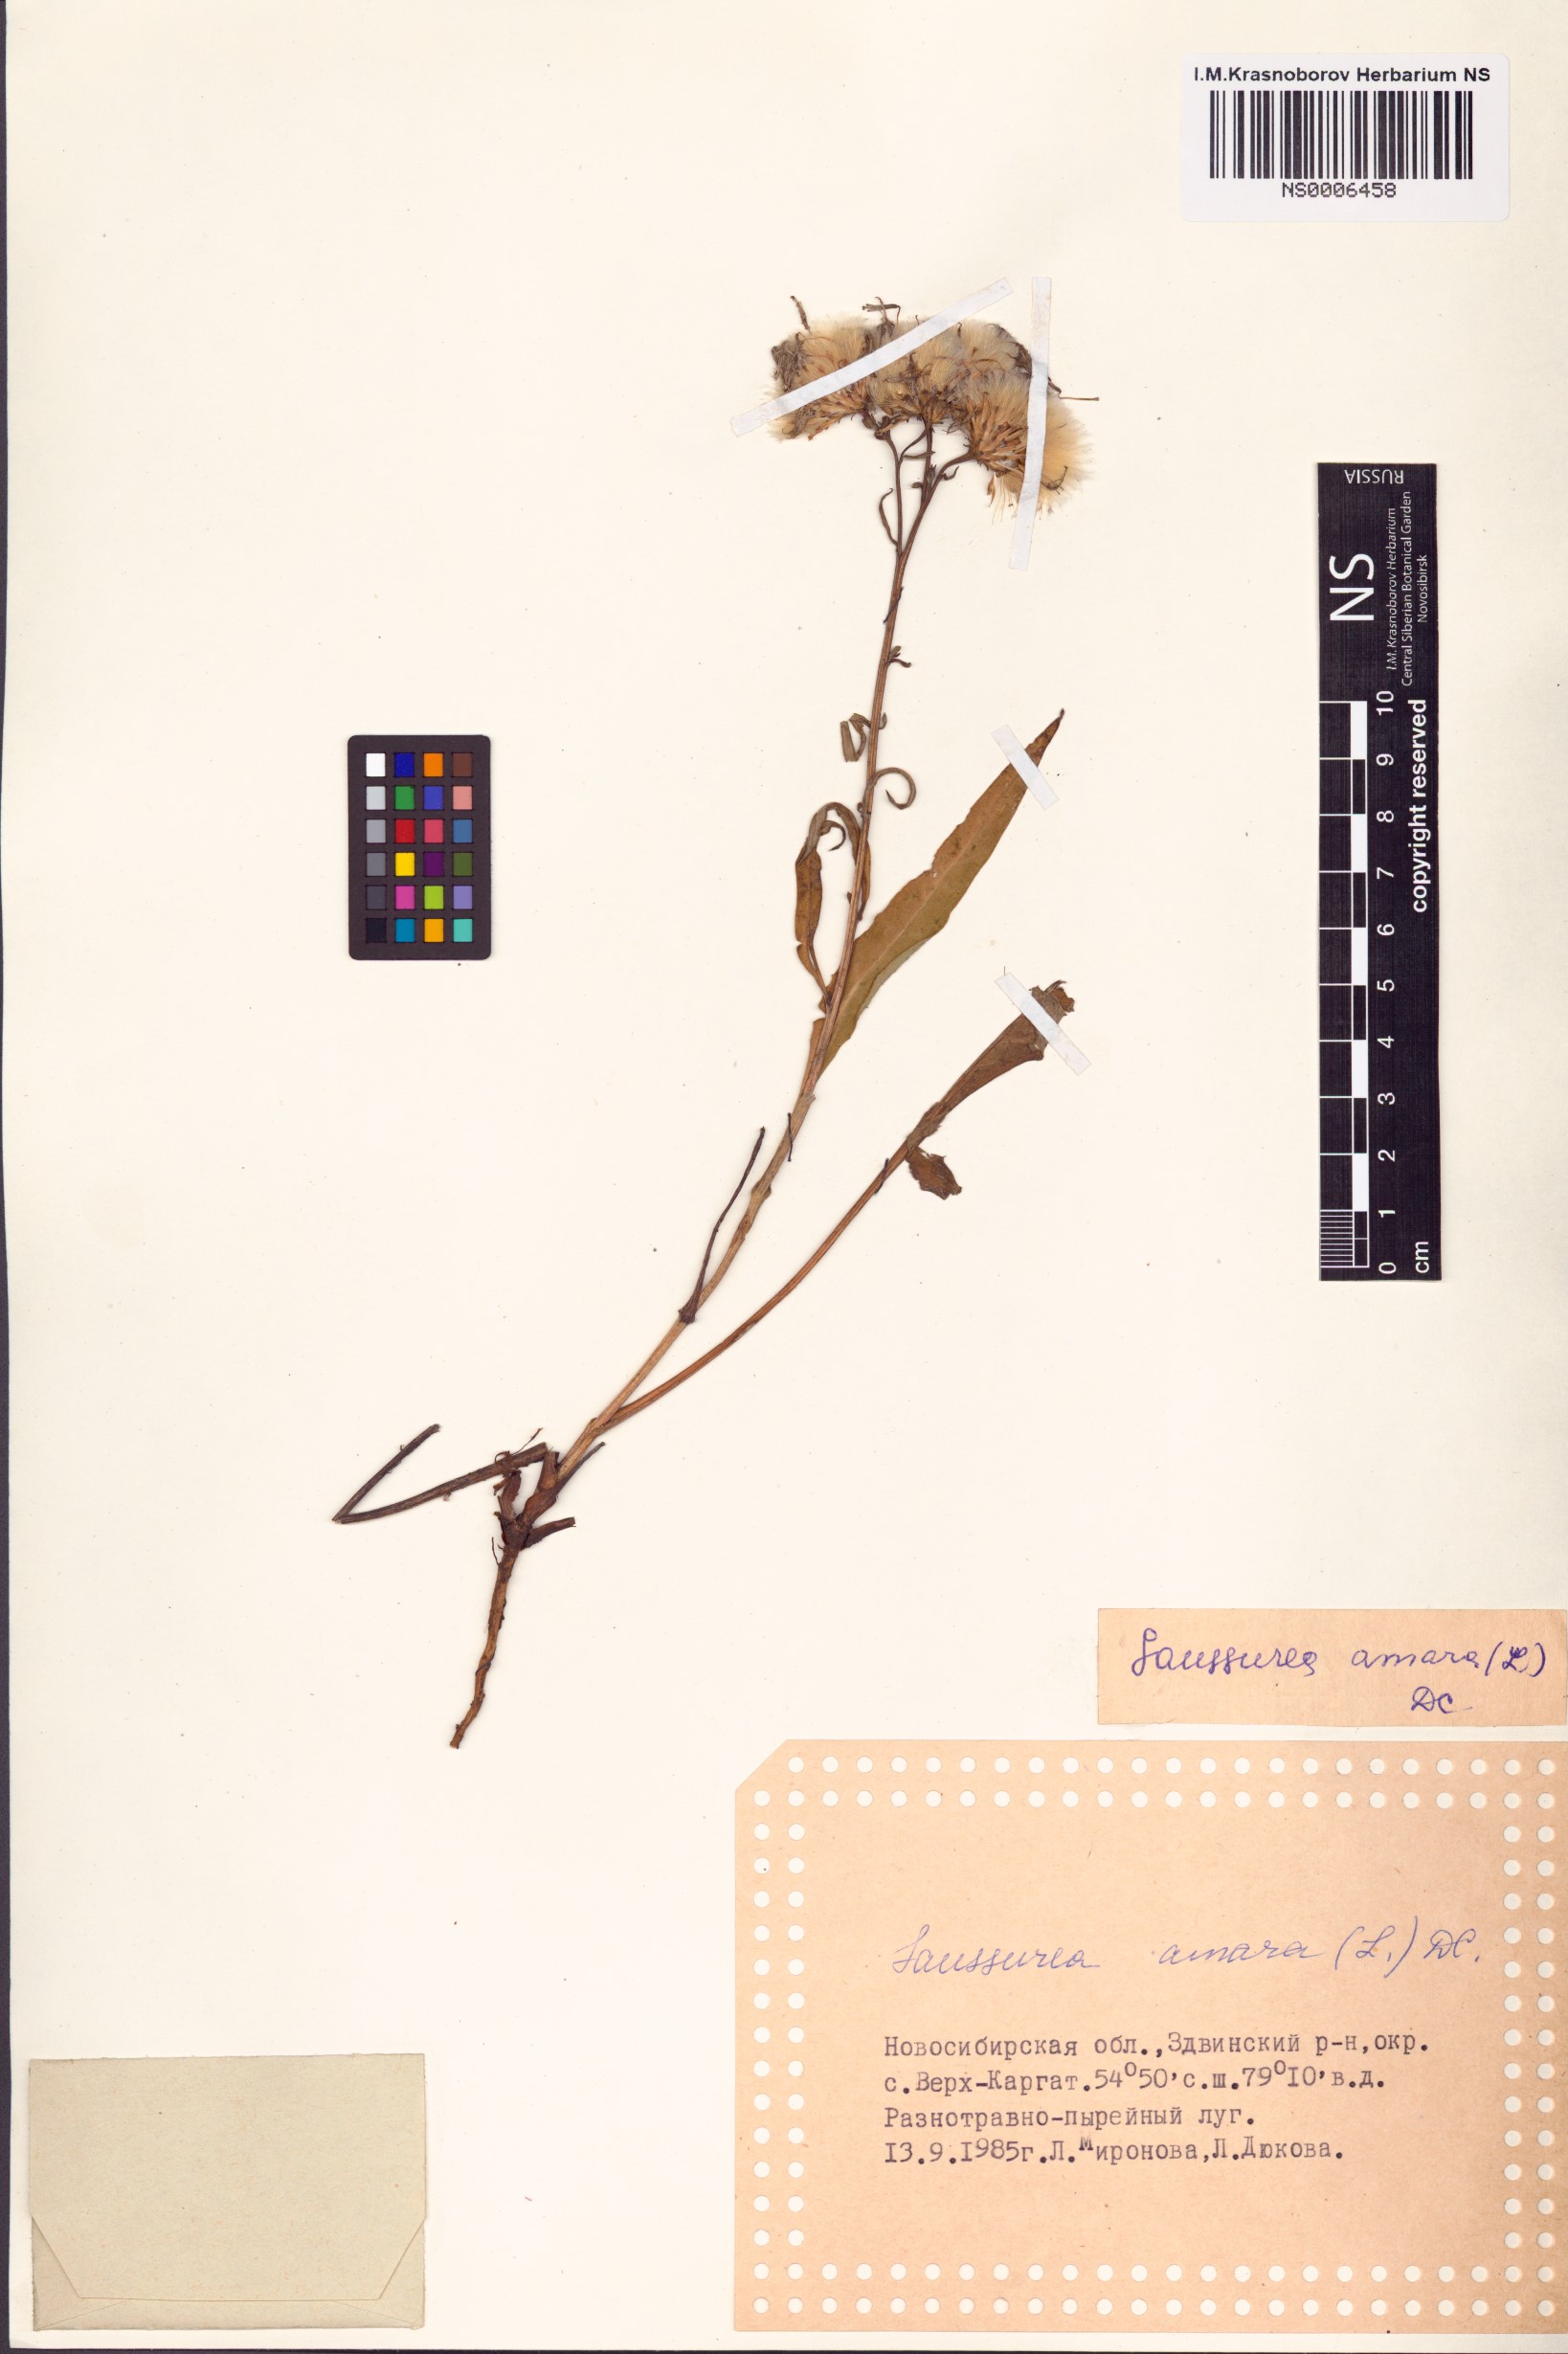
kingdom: Plantae
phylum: Tracheophyta
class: Magnoliopsida
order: Asterales
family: Asteraceae
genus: Saussurea
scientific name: Saussurea amara
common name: Alberta sawwort
